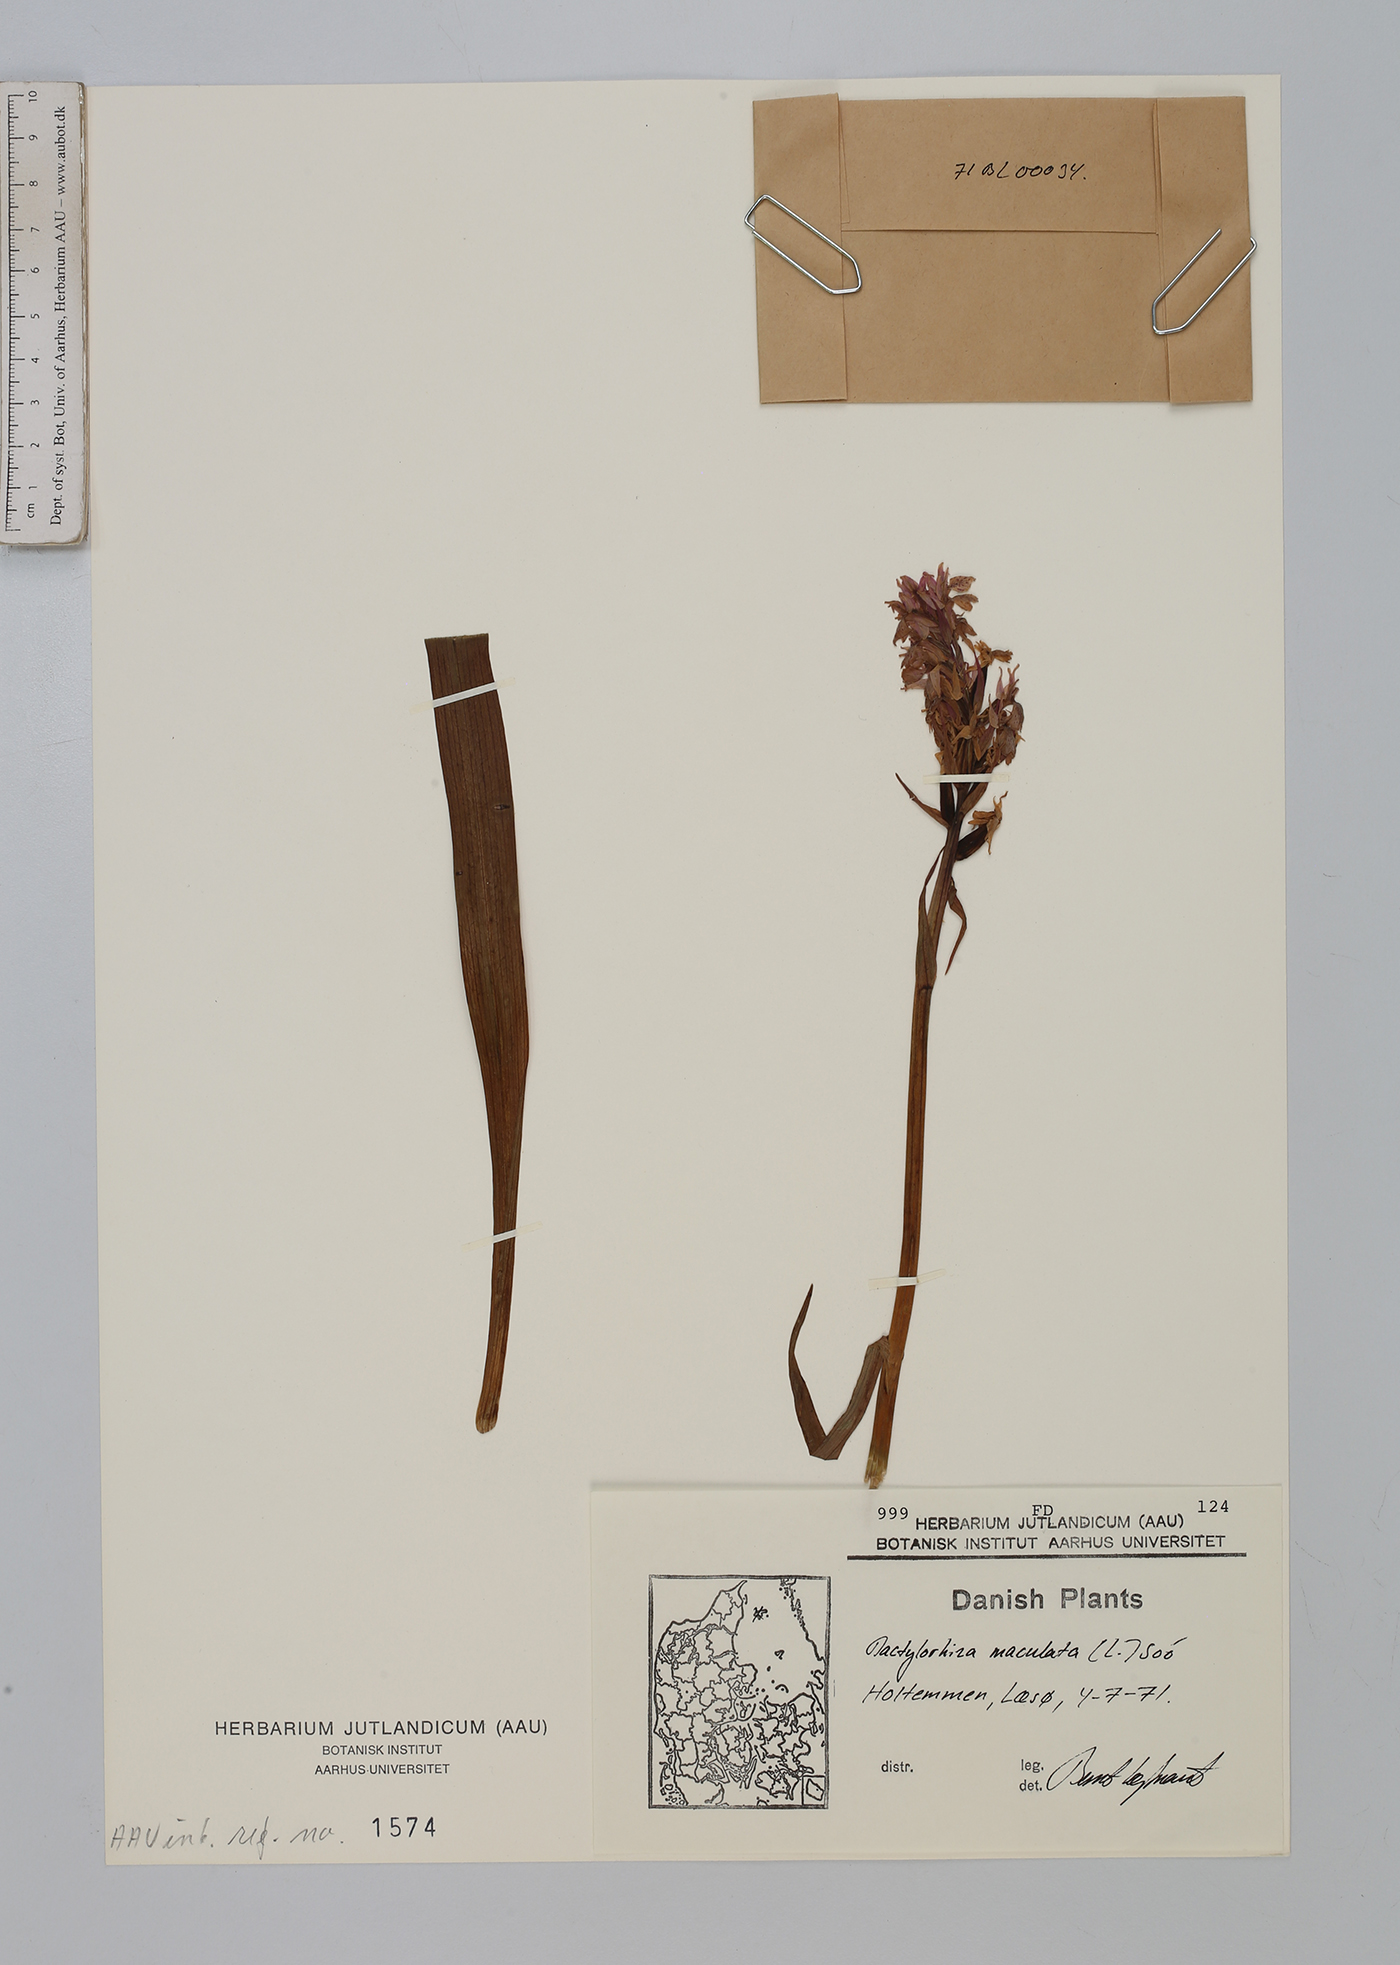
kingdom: Plantae
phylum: Tracheophyta
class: Liliopsida
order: Asparagales
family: Orchidaceae
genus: Dactylorhiza
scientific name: Dactylorhiza maculata
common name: Heath spotted-orchid
